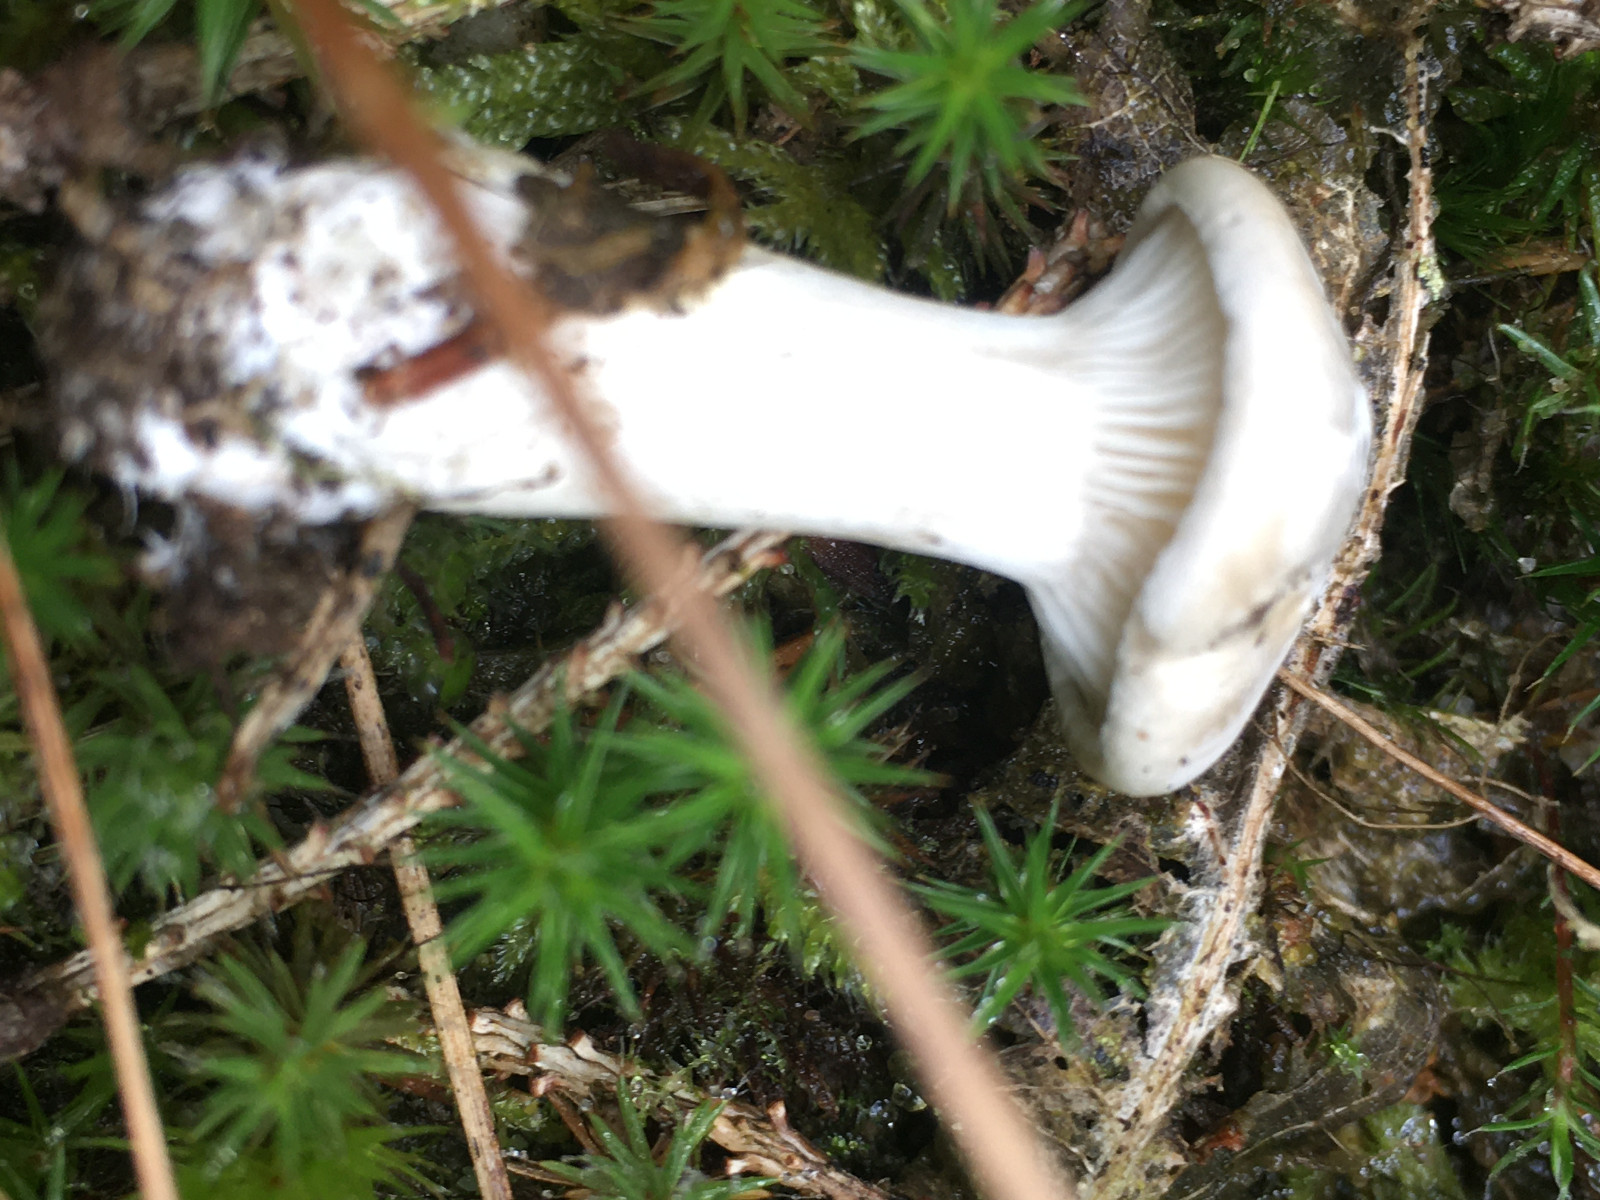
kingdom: Fungi
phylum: Basidiomycota
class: Agaricomycetes
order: Agaricales
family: Entolomataceae
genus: Clitopilus
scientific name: Clitopilus prunulus
